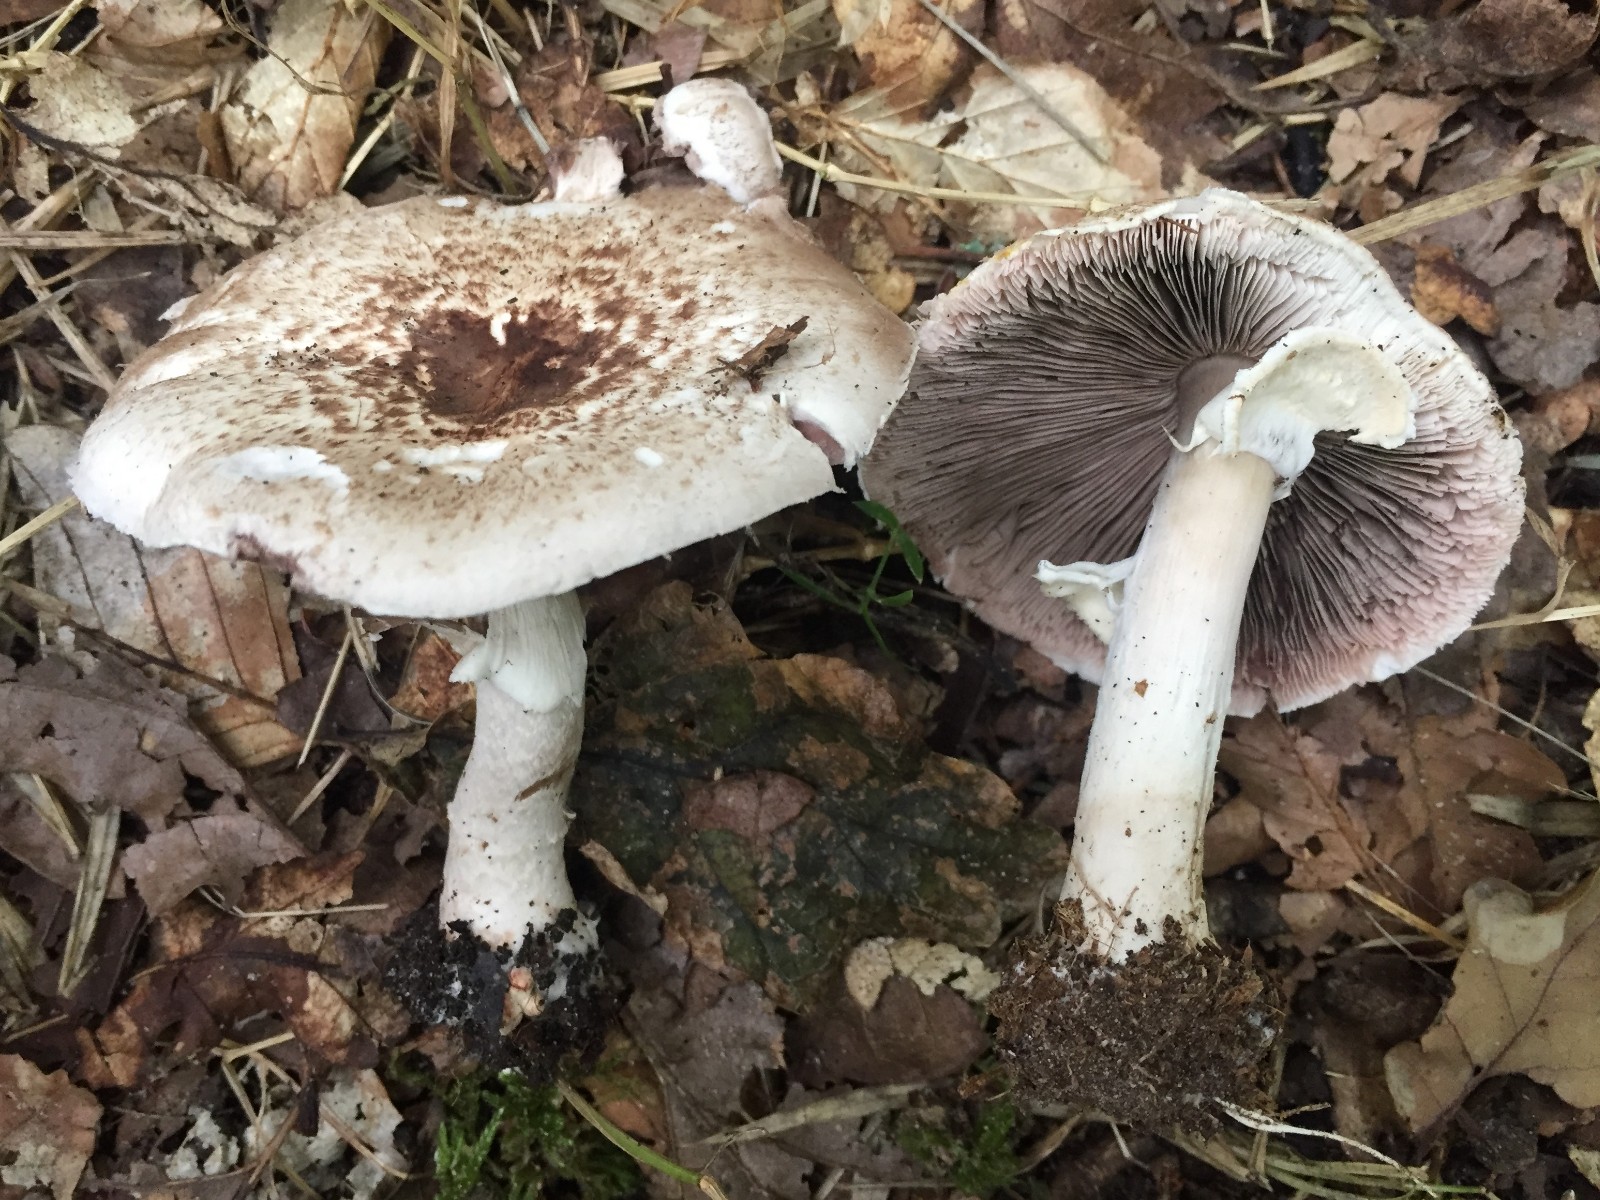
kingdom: Fungi
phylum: Basidiomycota
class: Agaricomycetes
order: Agaricales
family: Agaricaceae
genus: Agaricus
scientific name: Agaricus impudicus
